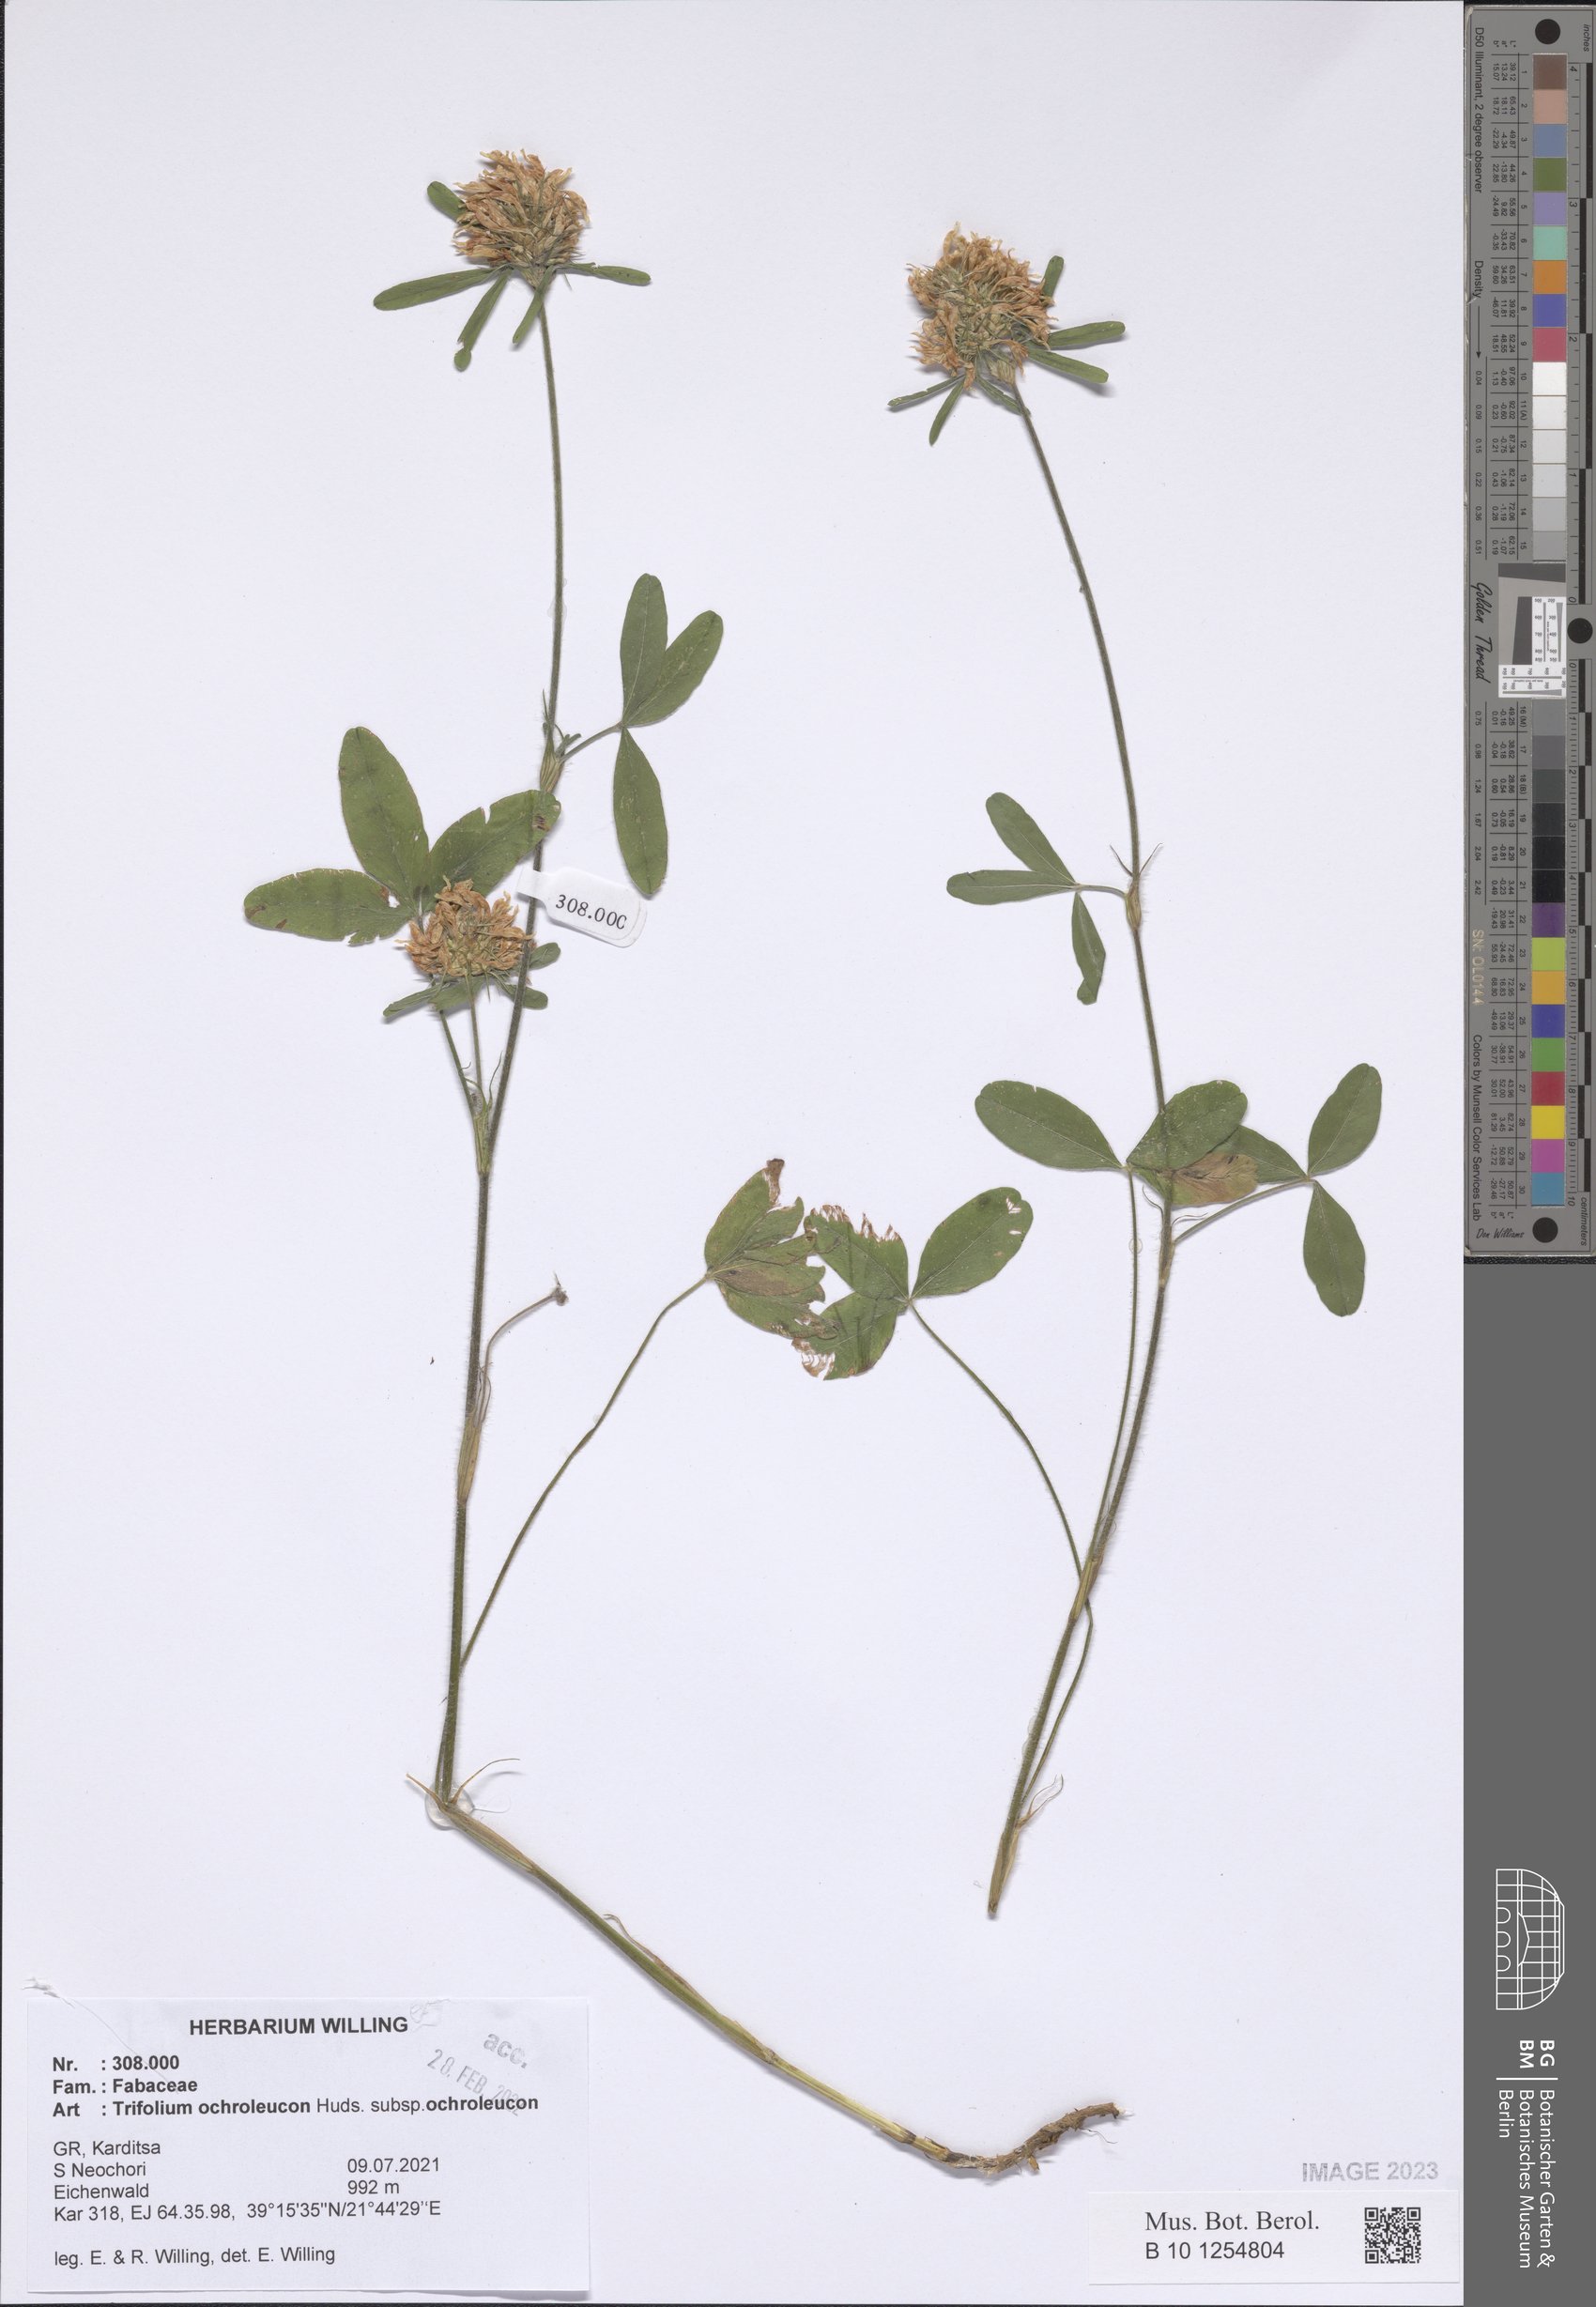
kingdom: Plantae
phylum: Tracheophyta
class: Magnoliopsida
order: Fabales
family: Fabaceae
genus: Trifolium
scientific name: Trifolium ochroleucon
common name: Sulphur clover
